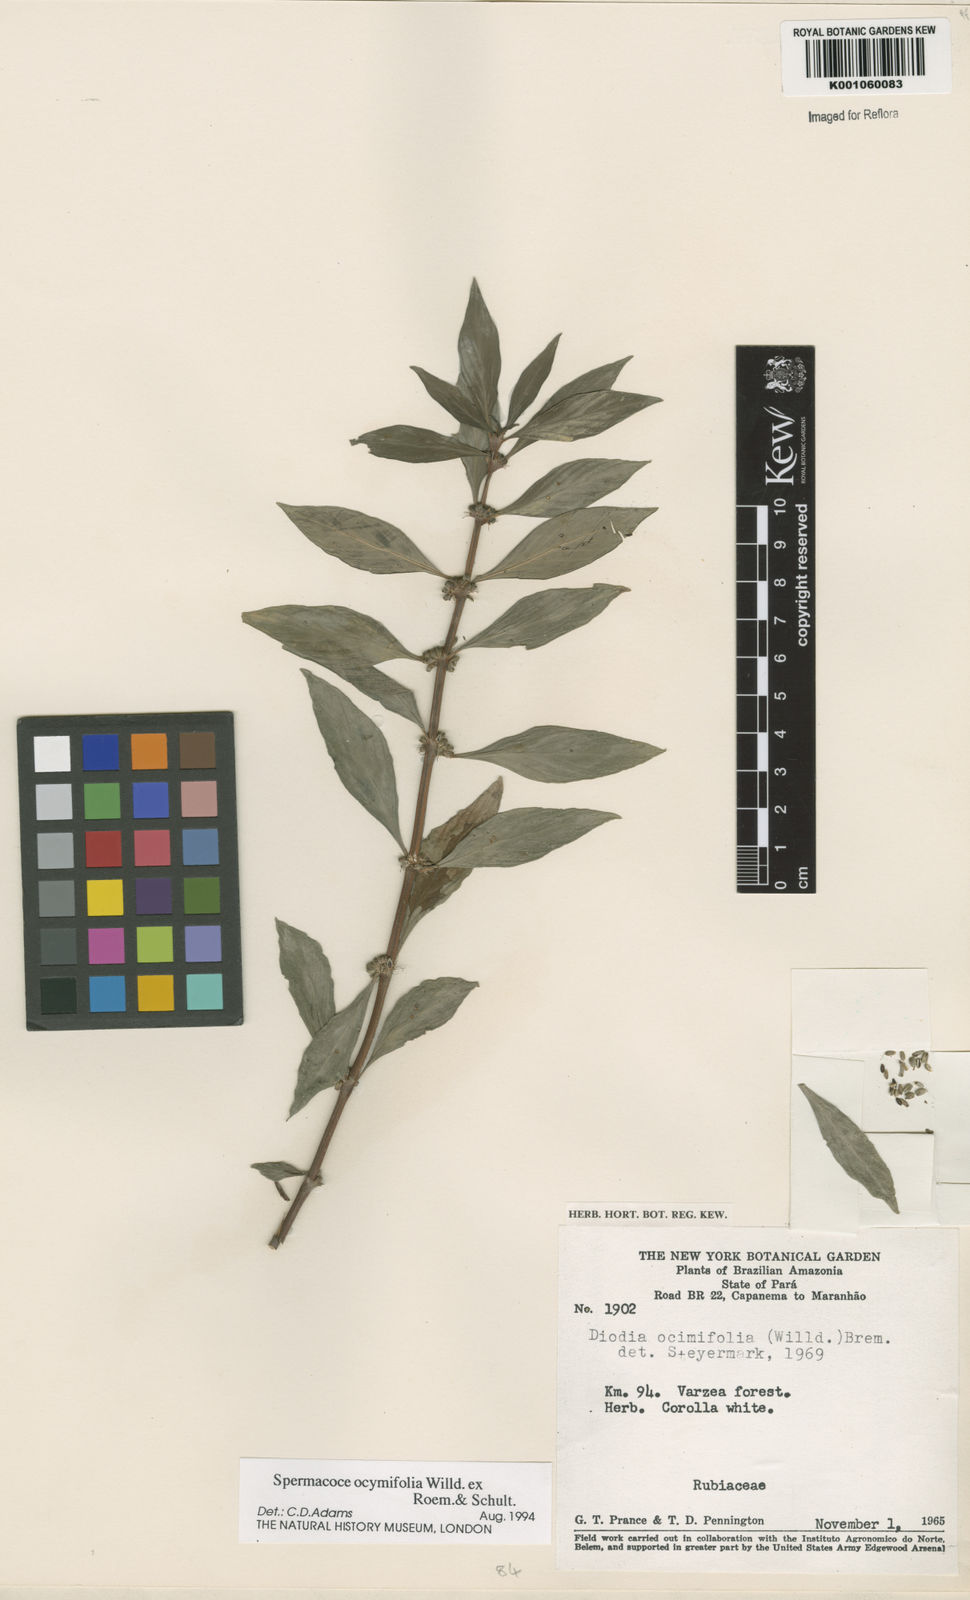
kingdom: Plantae
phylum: Tracheophyta
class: Magnoliopsida
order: Gentianales
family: Rubiaceae
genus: Spermacoce
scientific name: Spermacoce
